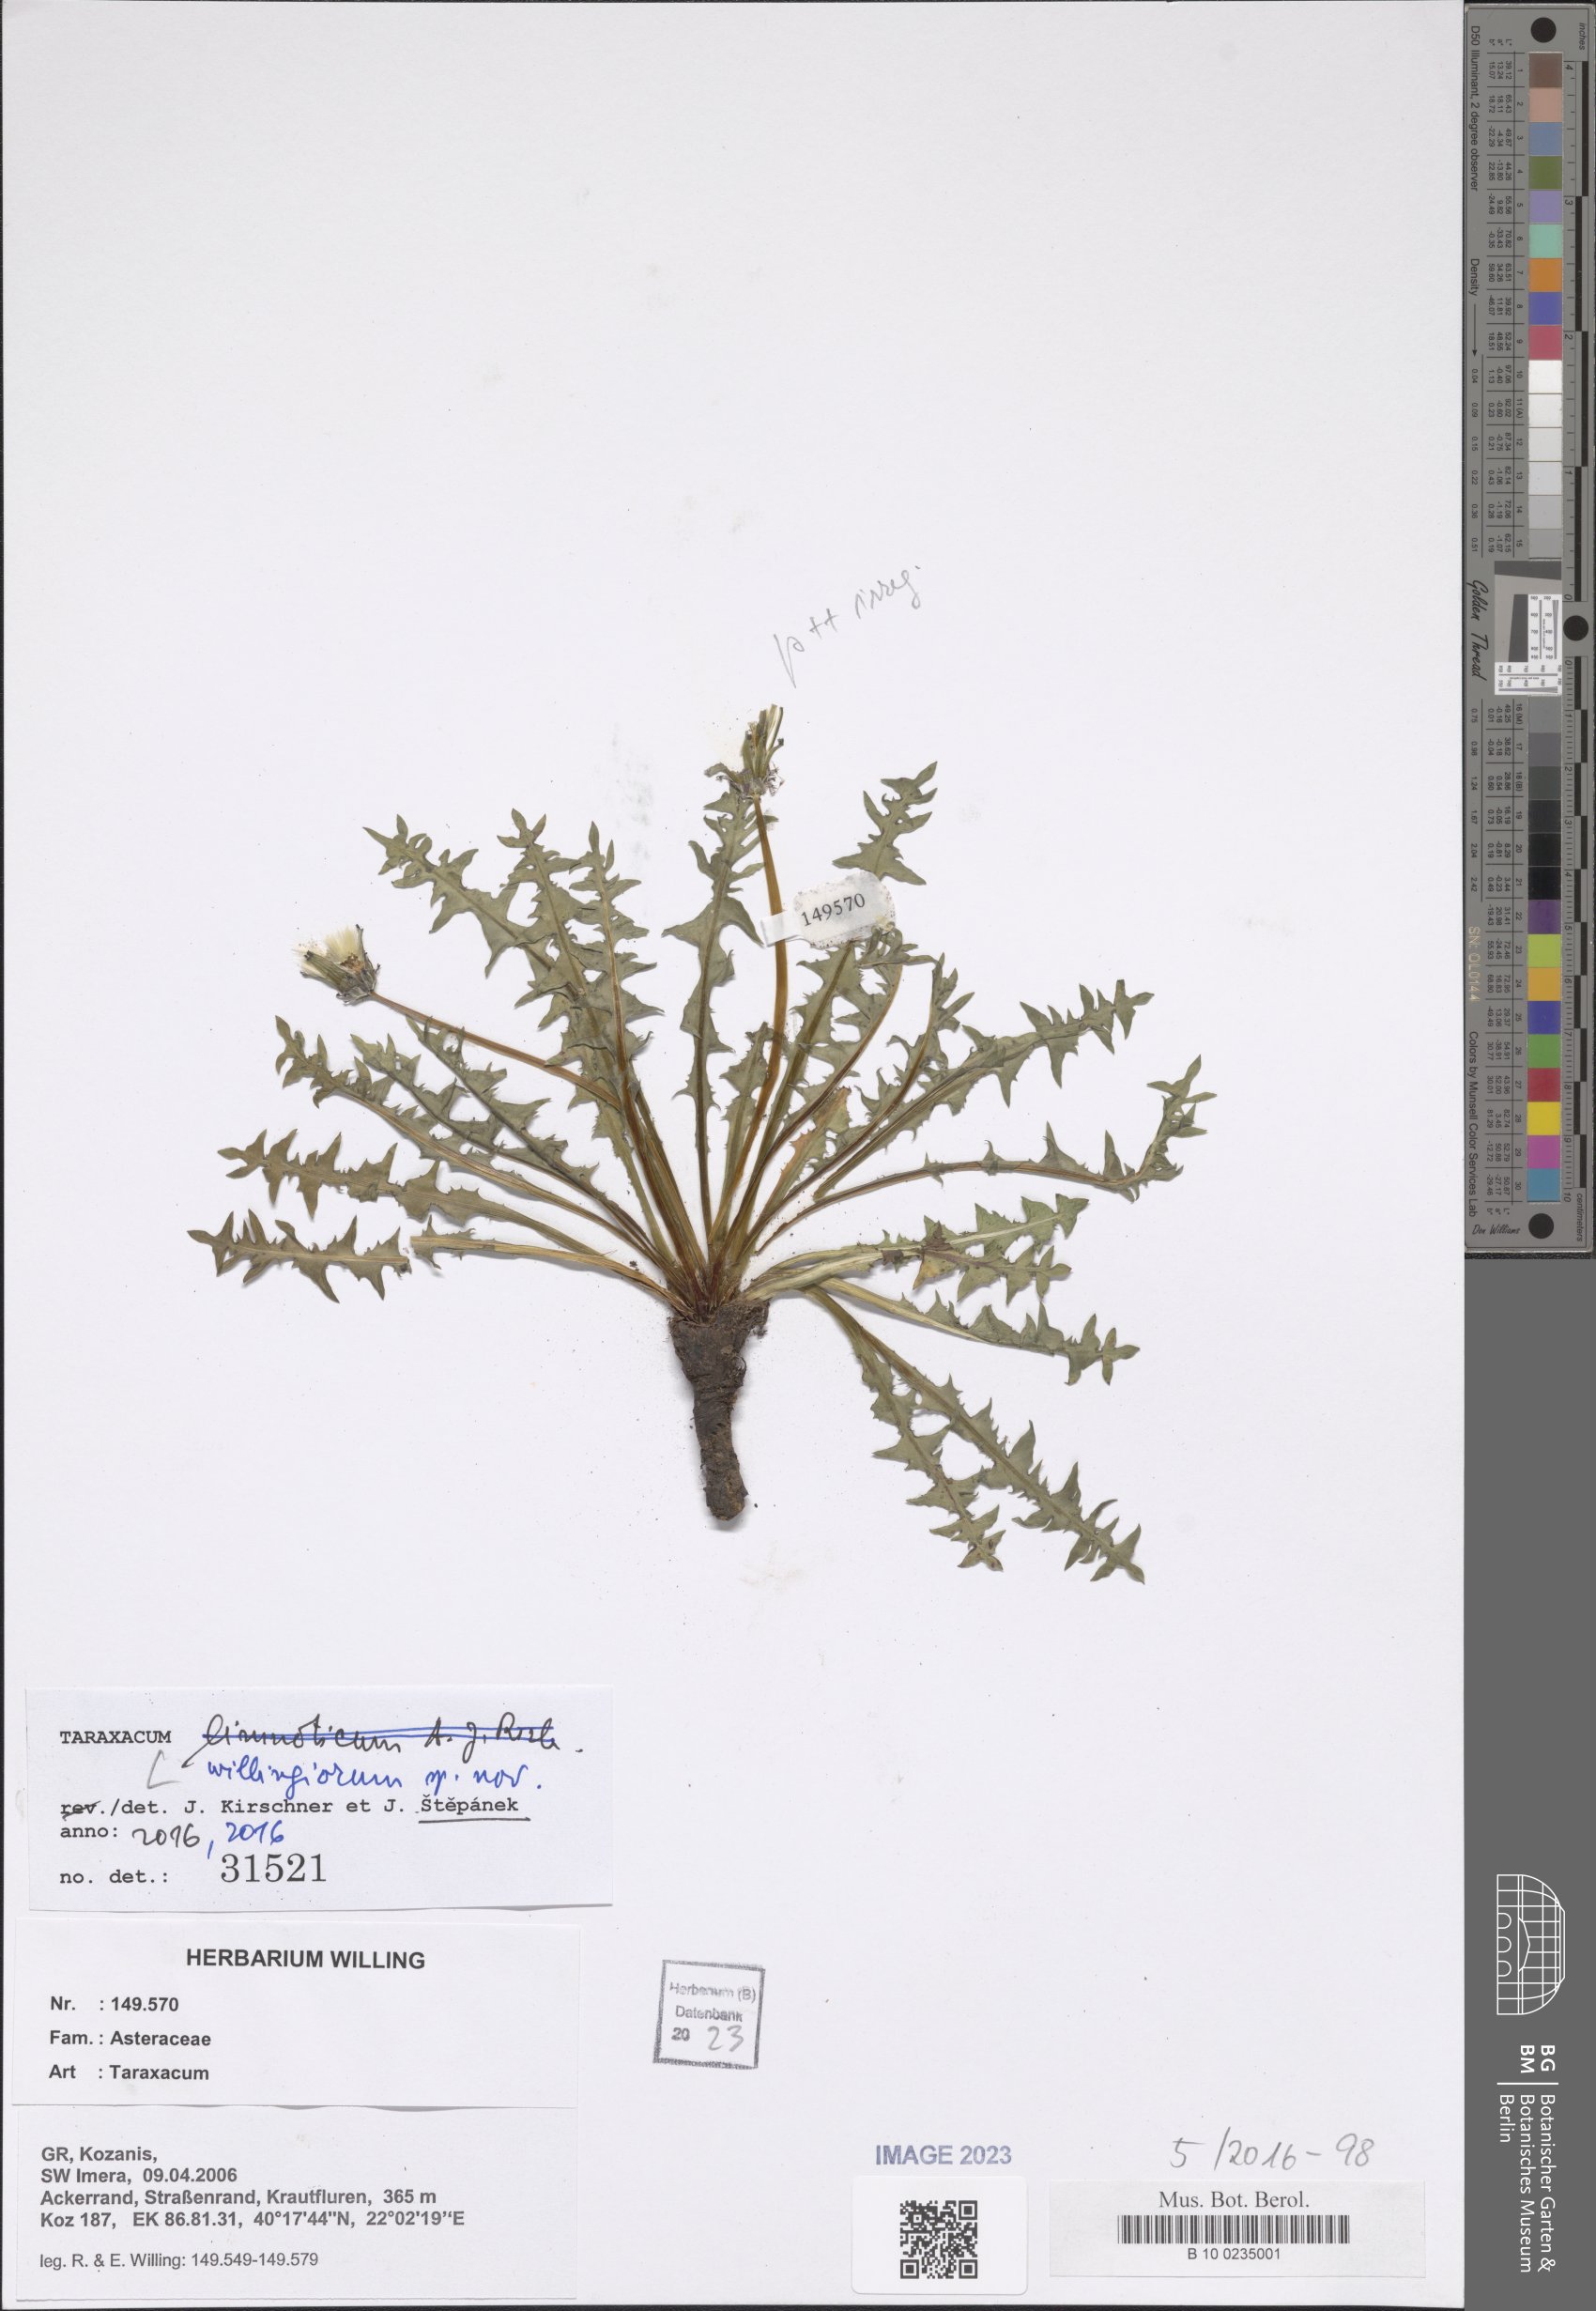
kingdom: Plantae
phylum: Tracheophyta
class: Magnoliopsida
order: Asterales
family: Asteraceae
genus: Taraxacum
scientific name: Taraxacum
